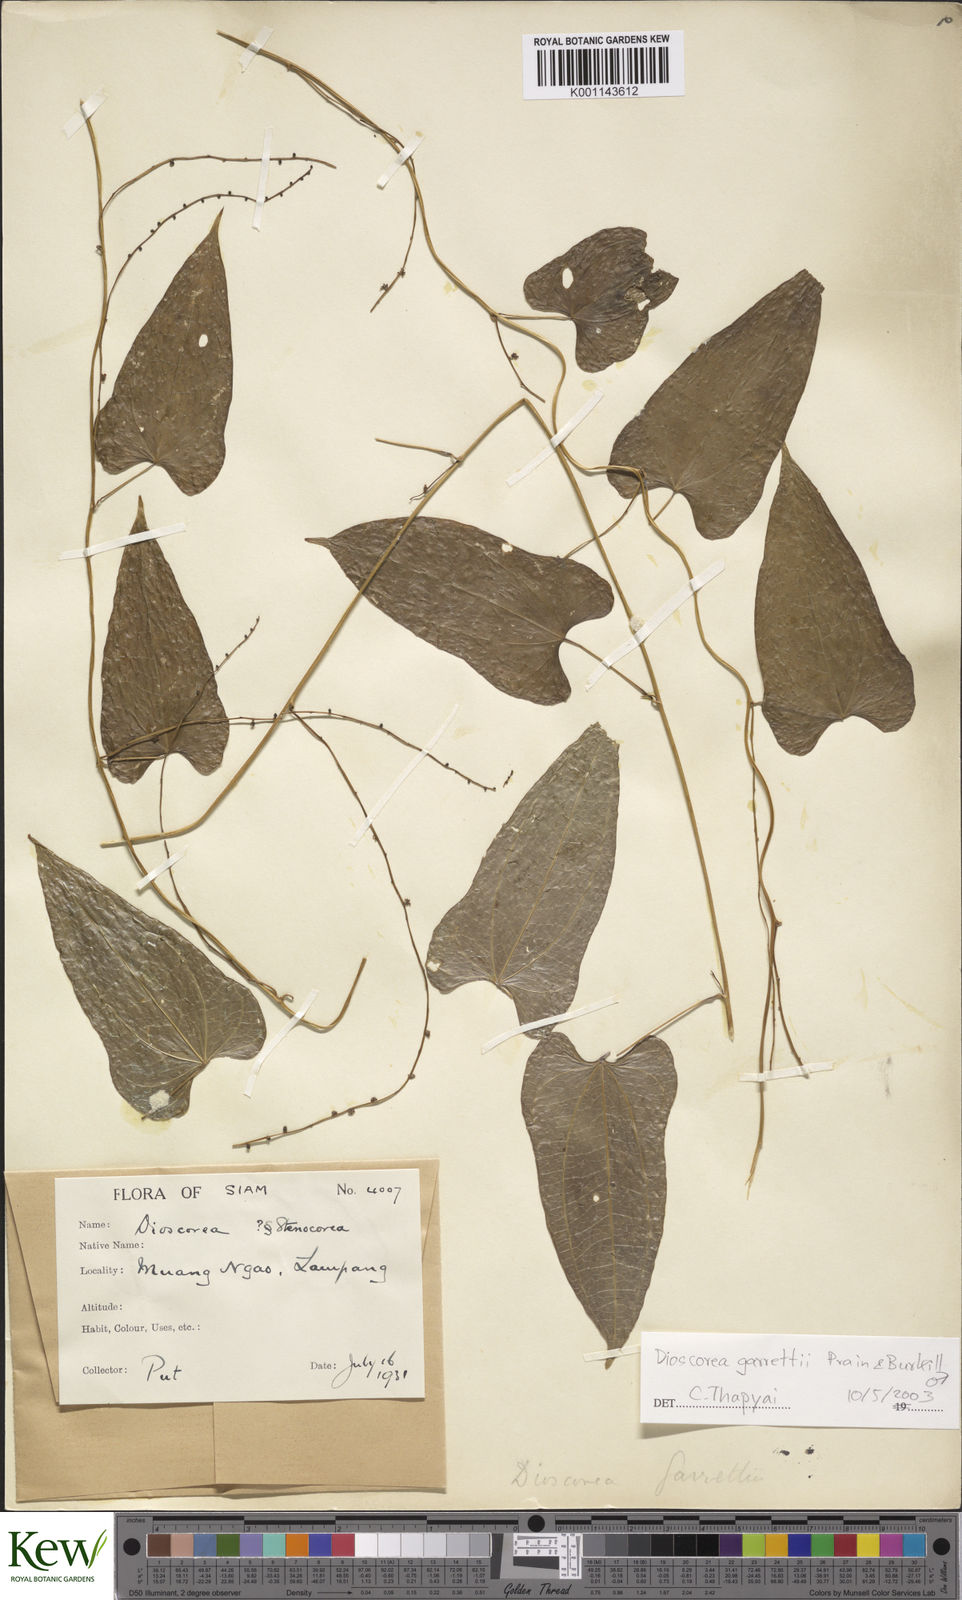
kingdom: Plantae
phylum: Tracheophyta
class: Liliopsida
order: Dioscoreales
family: Dioscoreaceae
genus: Dioscorea
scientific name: Dioscorea garrettii
